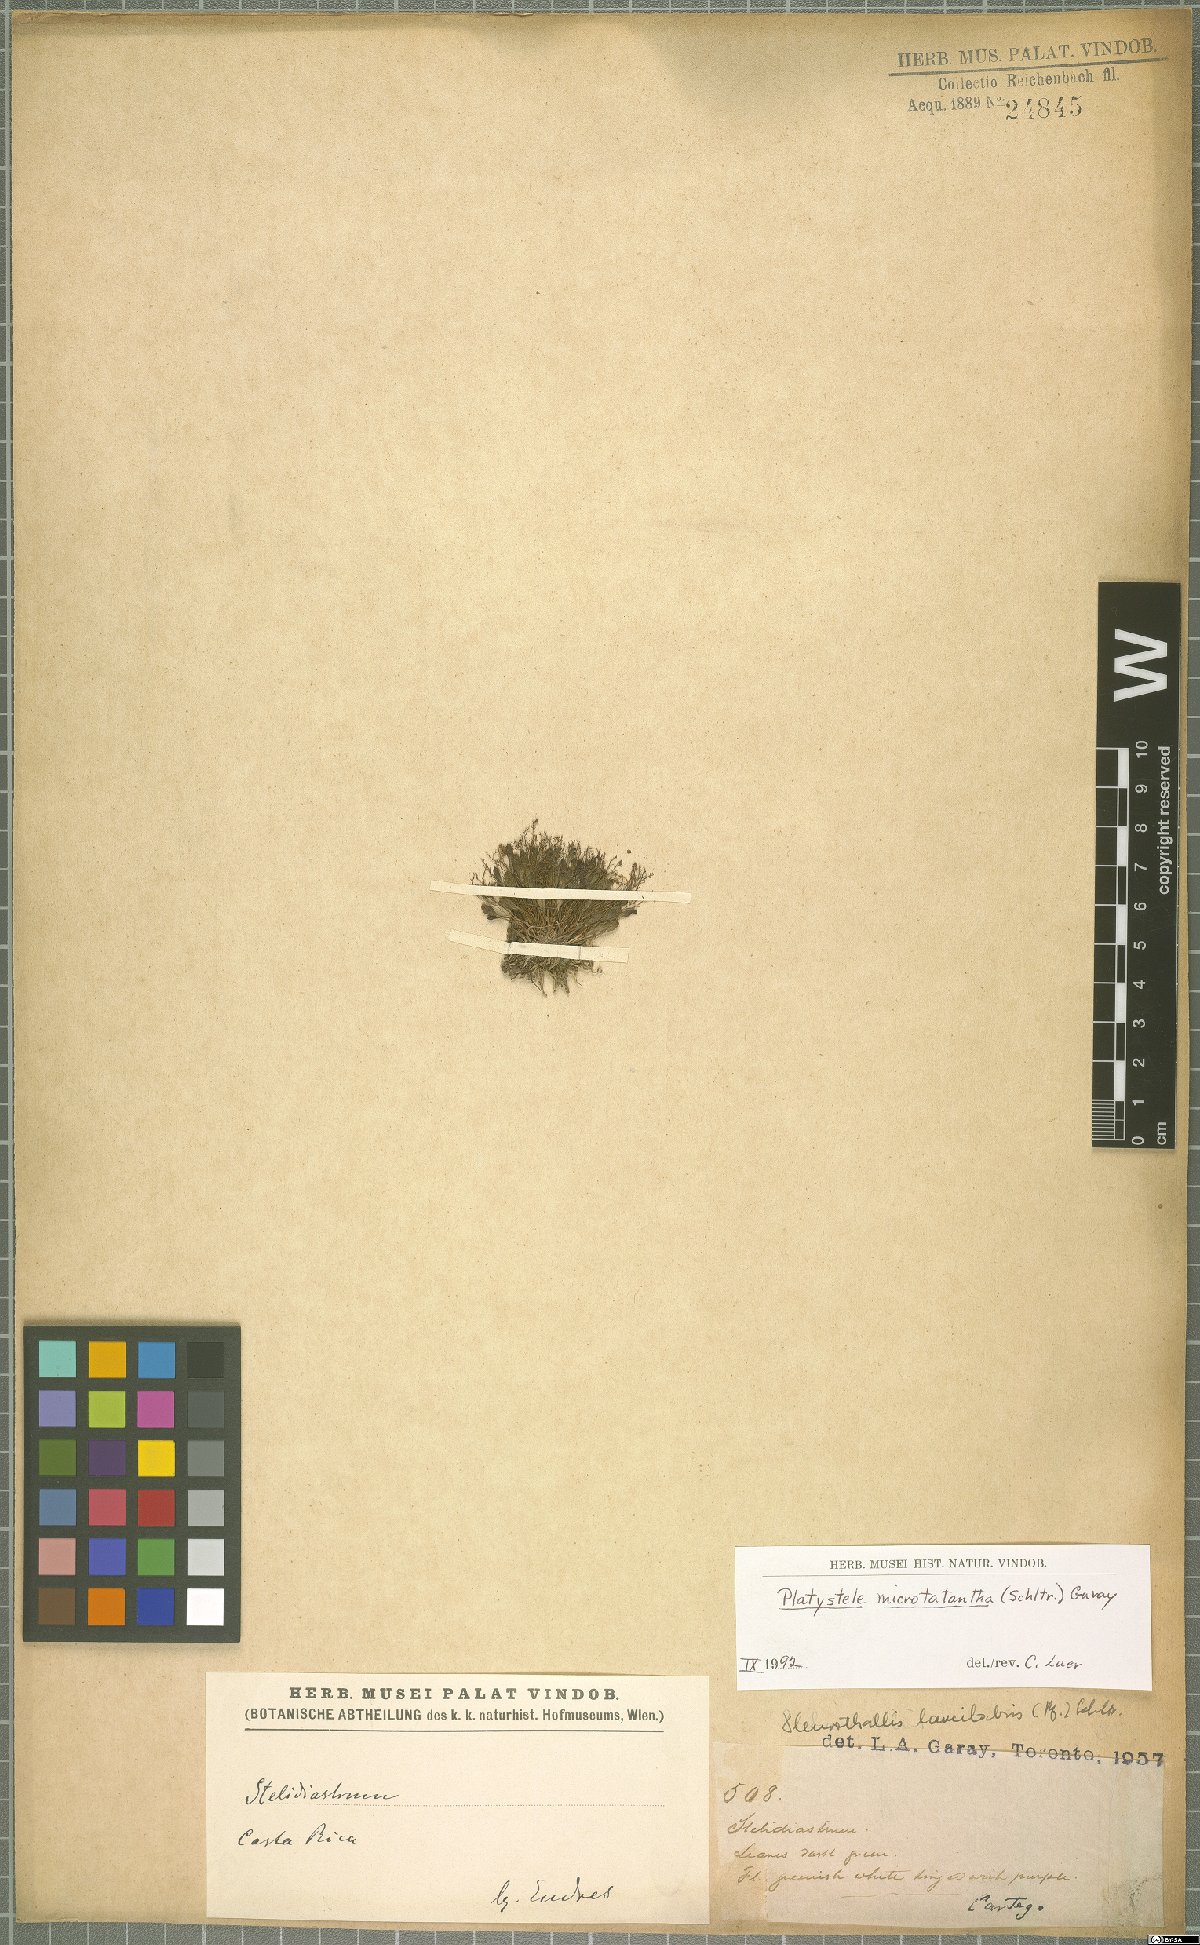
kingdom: Plantae
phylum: Tracheophyta
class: Liliopsida
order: Asparagales
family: Orchidaceae
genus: Platystele
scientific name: Platystele microtatantha
